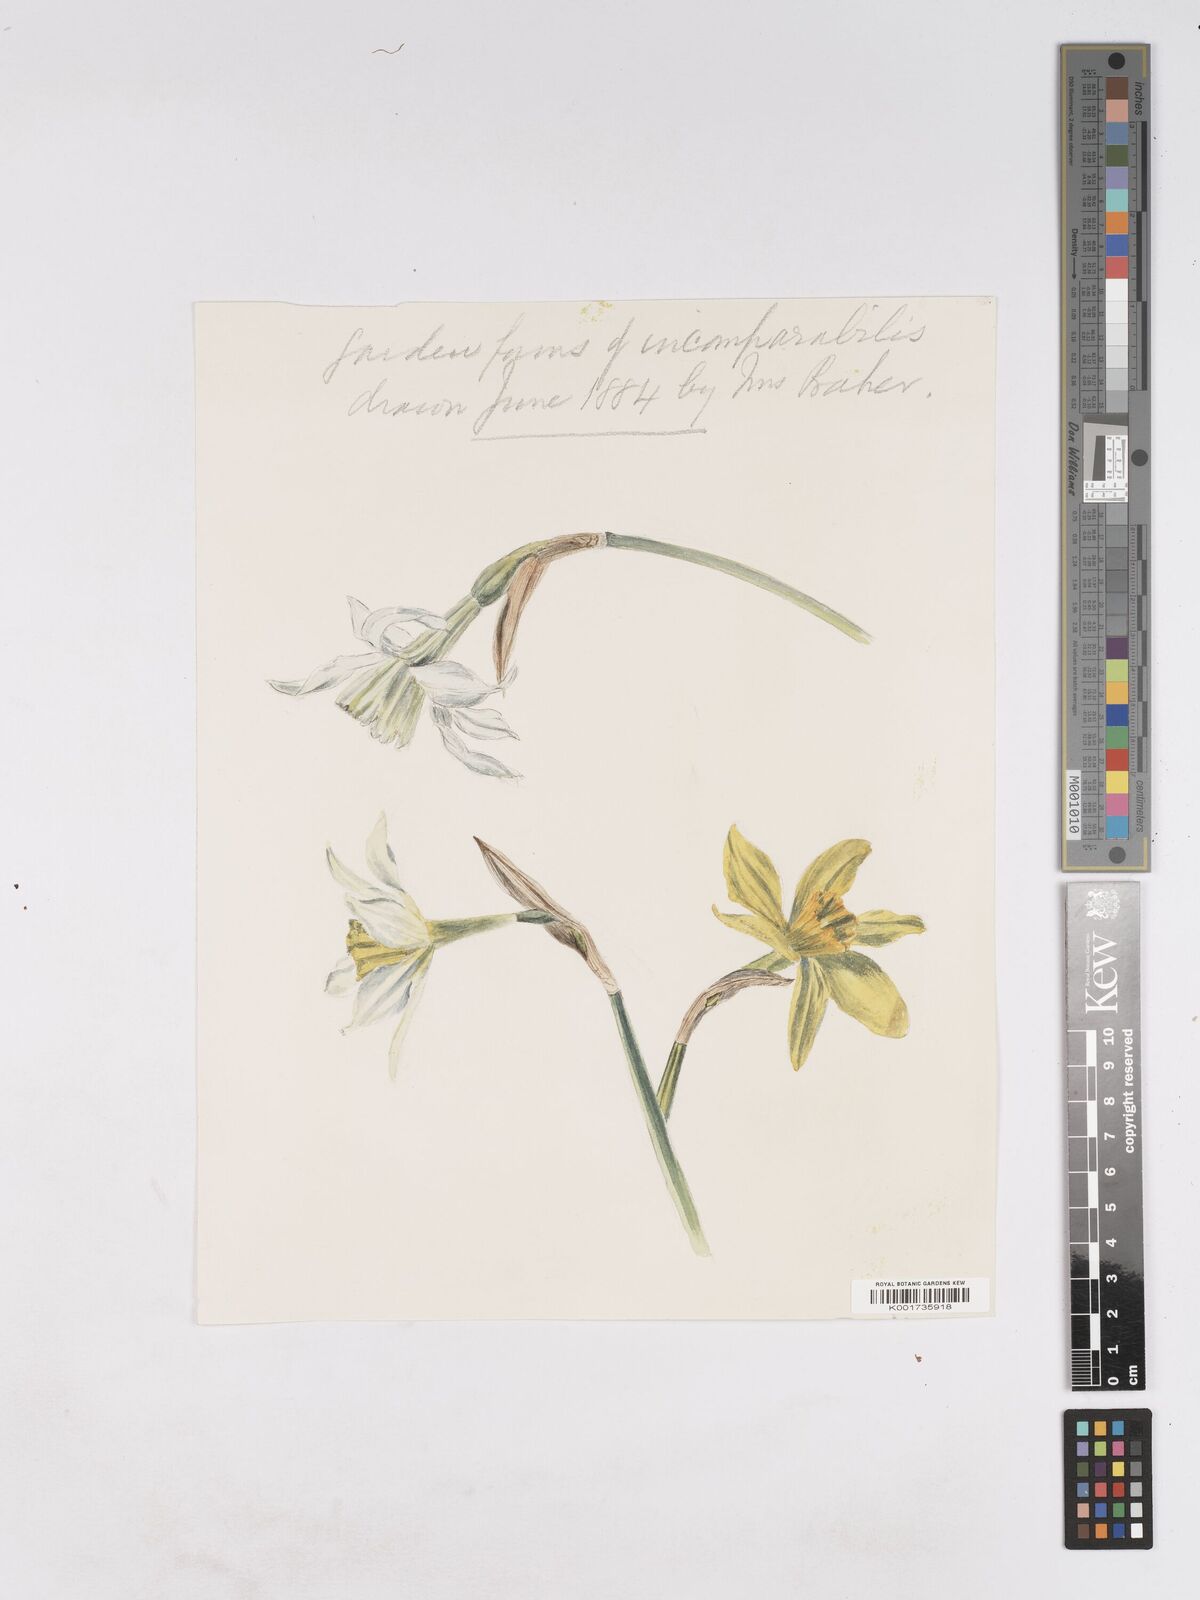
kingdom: Plantae
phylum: Tracheophyta
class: Liliopsida
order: Asparagales
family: Amaryllidaceae
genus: Narcissus
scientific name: Narcissus incomparabilis
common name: Nonesuch daffodil
